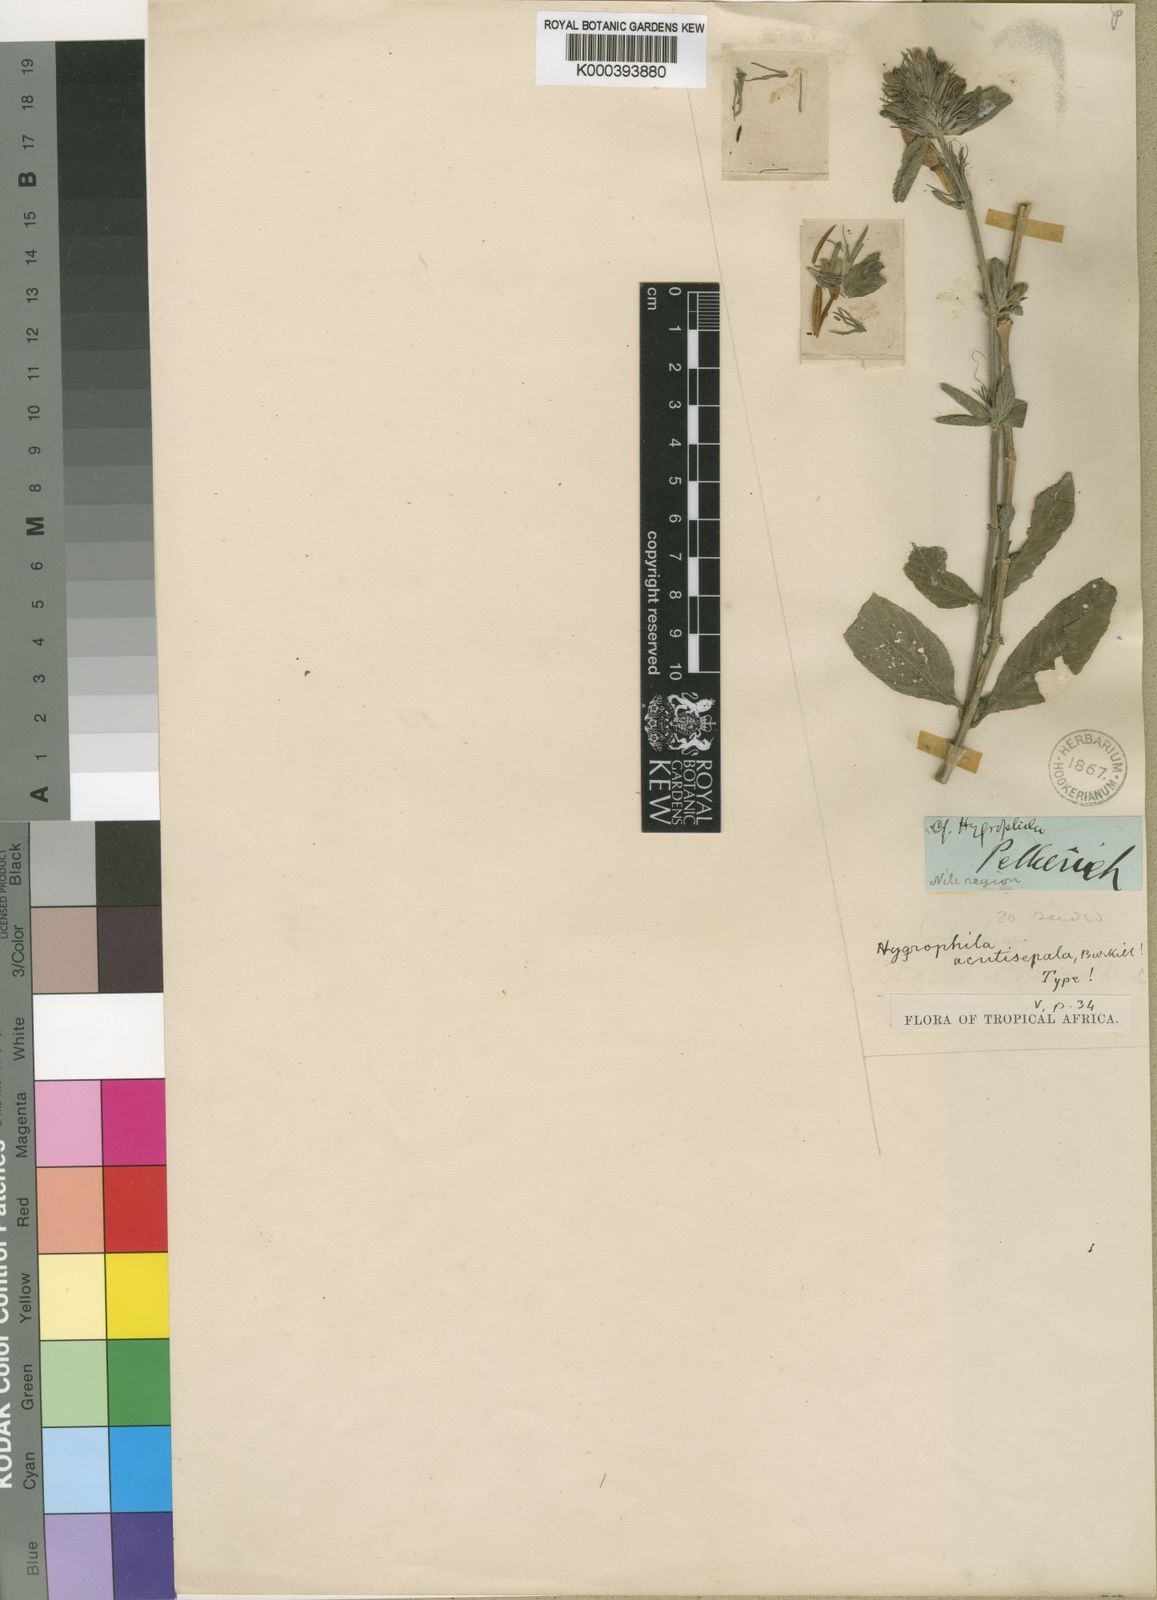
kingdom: Plantae
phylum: Tracheophyta
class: Magnoliopsida
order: Lamiales
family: Acanthaceae
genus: Hygrophila
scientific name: Hygrophila uliginosa
